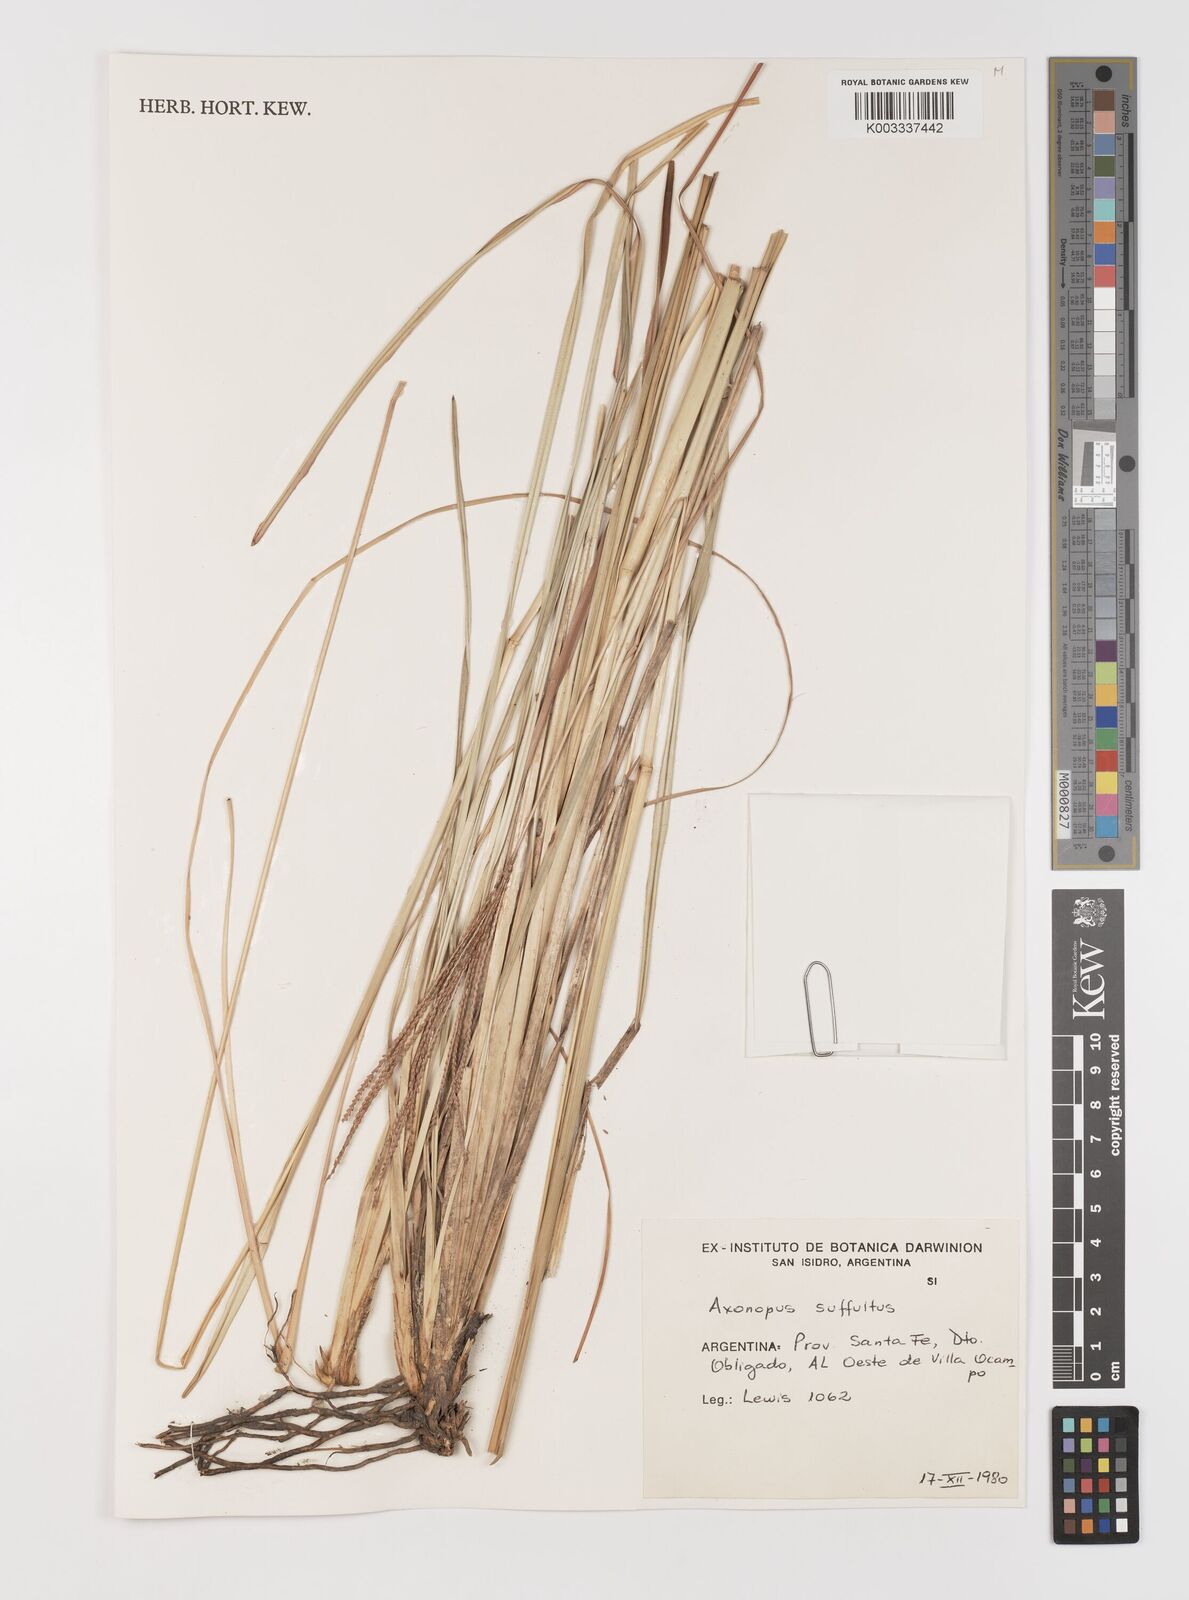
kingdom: Plantae
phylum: Tracheophyta
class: Liliopsida
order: Poales
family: Poaceae
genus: Axonopus
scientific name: Axonopus suffultus
